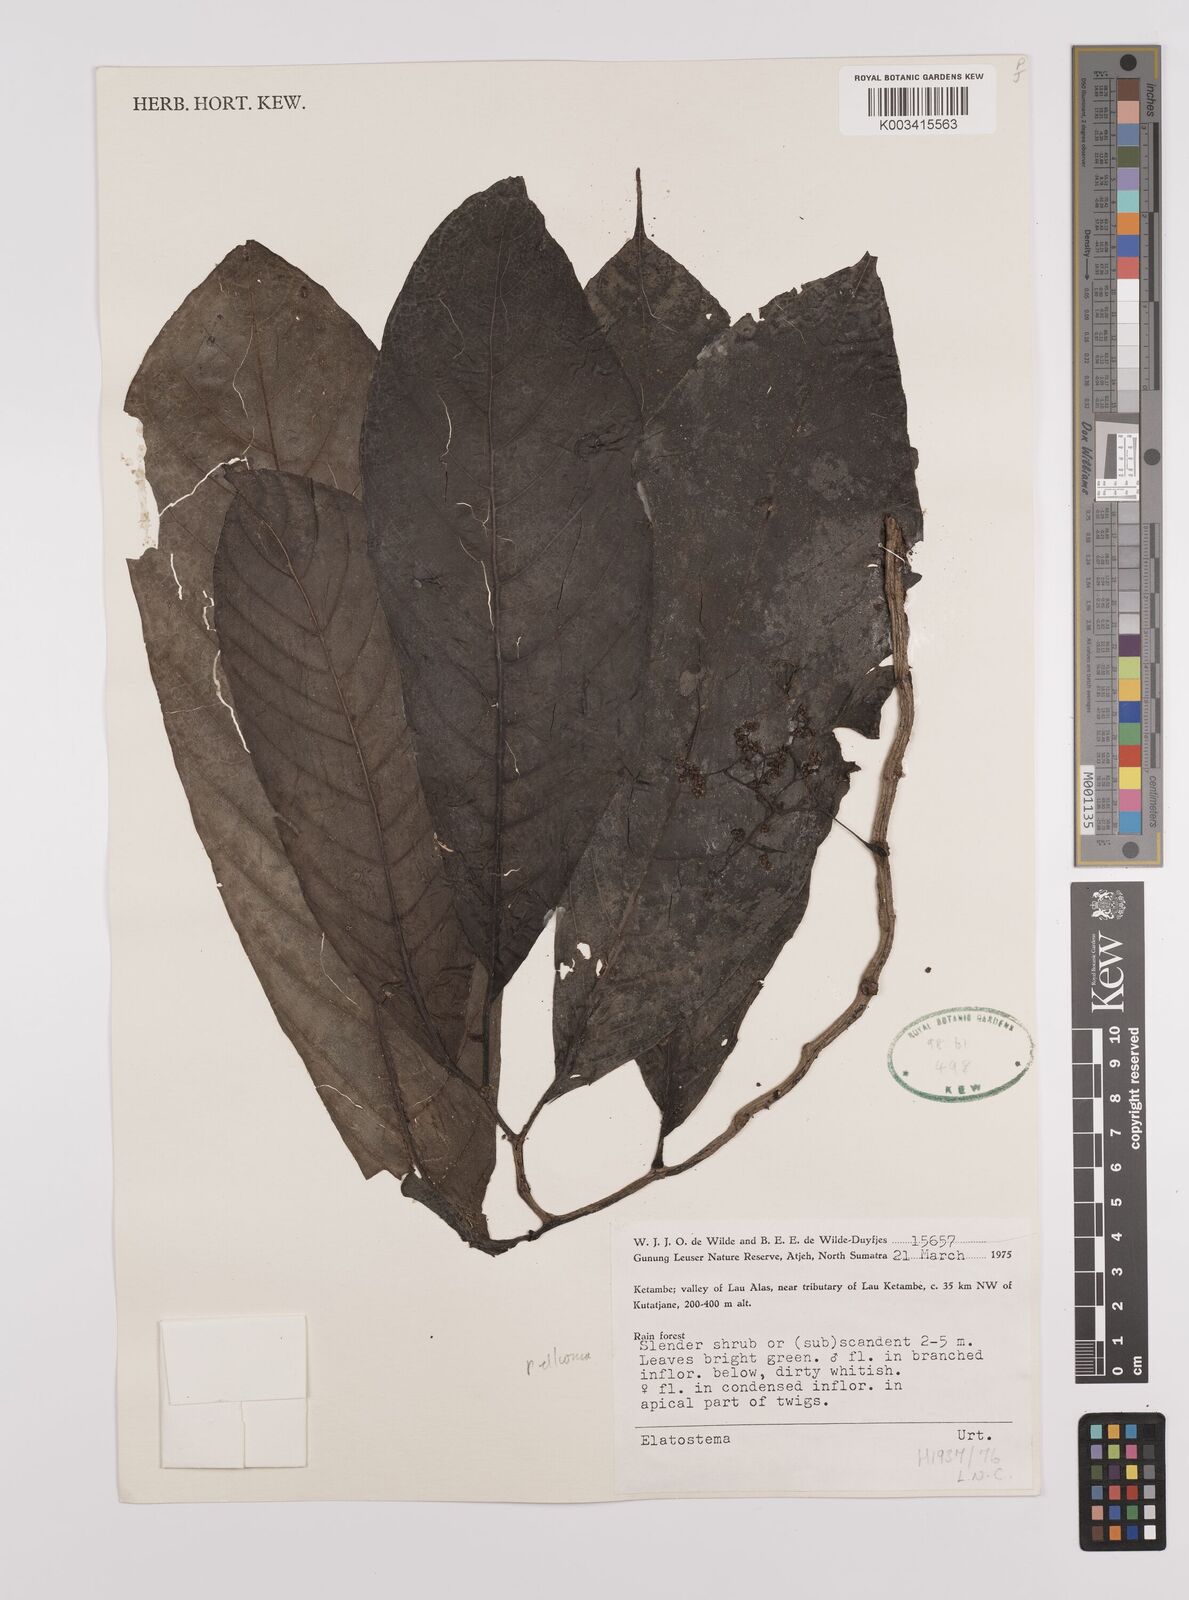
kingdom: Plantae
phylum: Tracheophyta
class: Magnoliopsida
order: Rosales
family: Urticaceae
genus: Elatostema
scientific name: Elatostema
